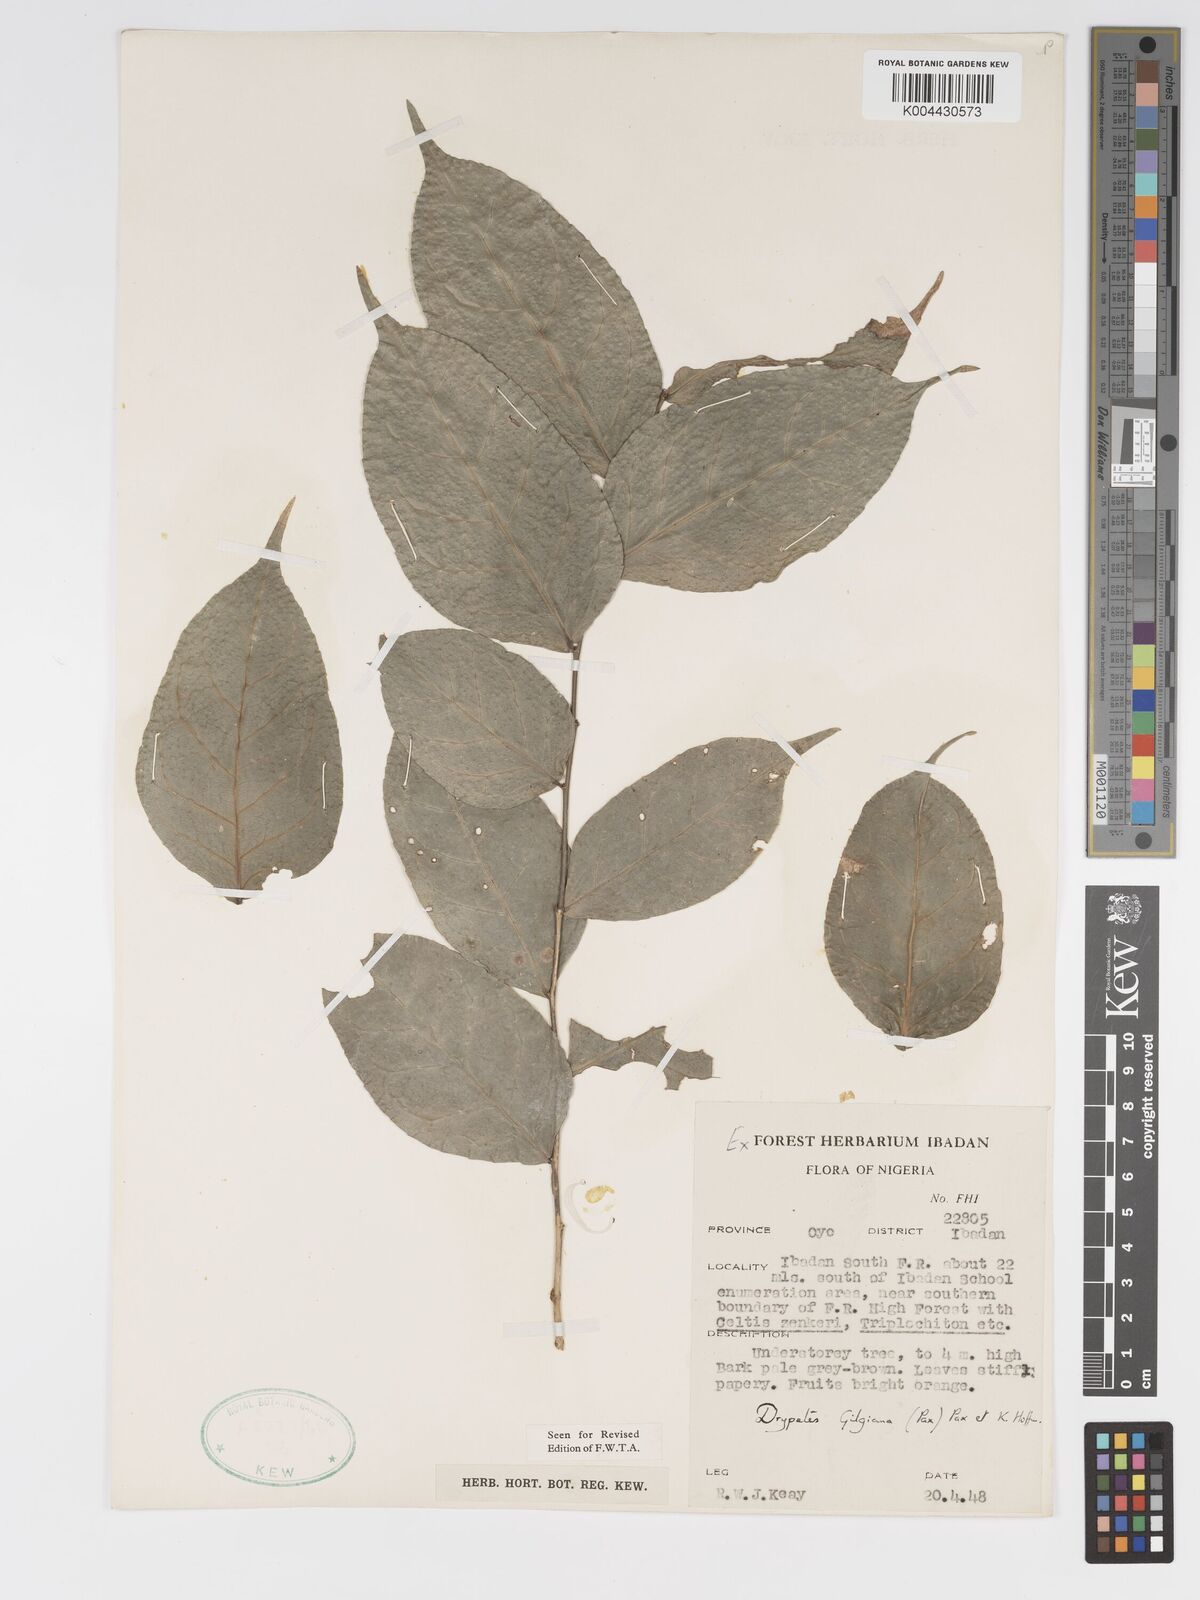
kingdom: Plantae
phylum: Tracheophyta
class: Magnoliopsida
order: Malpighiales
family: Putranjivaceae
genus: Drypetes
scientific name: Drypetes gilgiana
